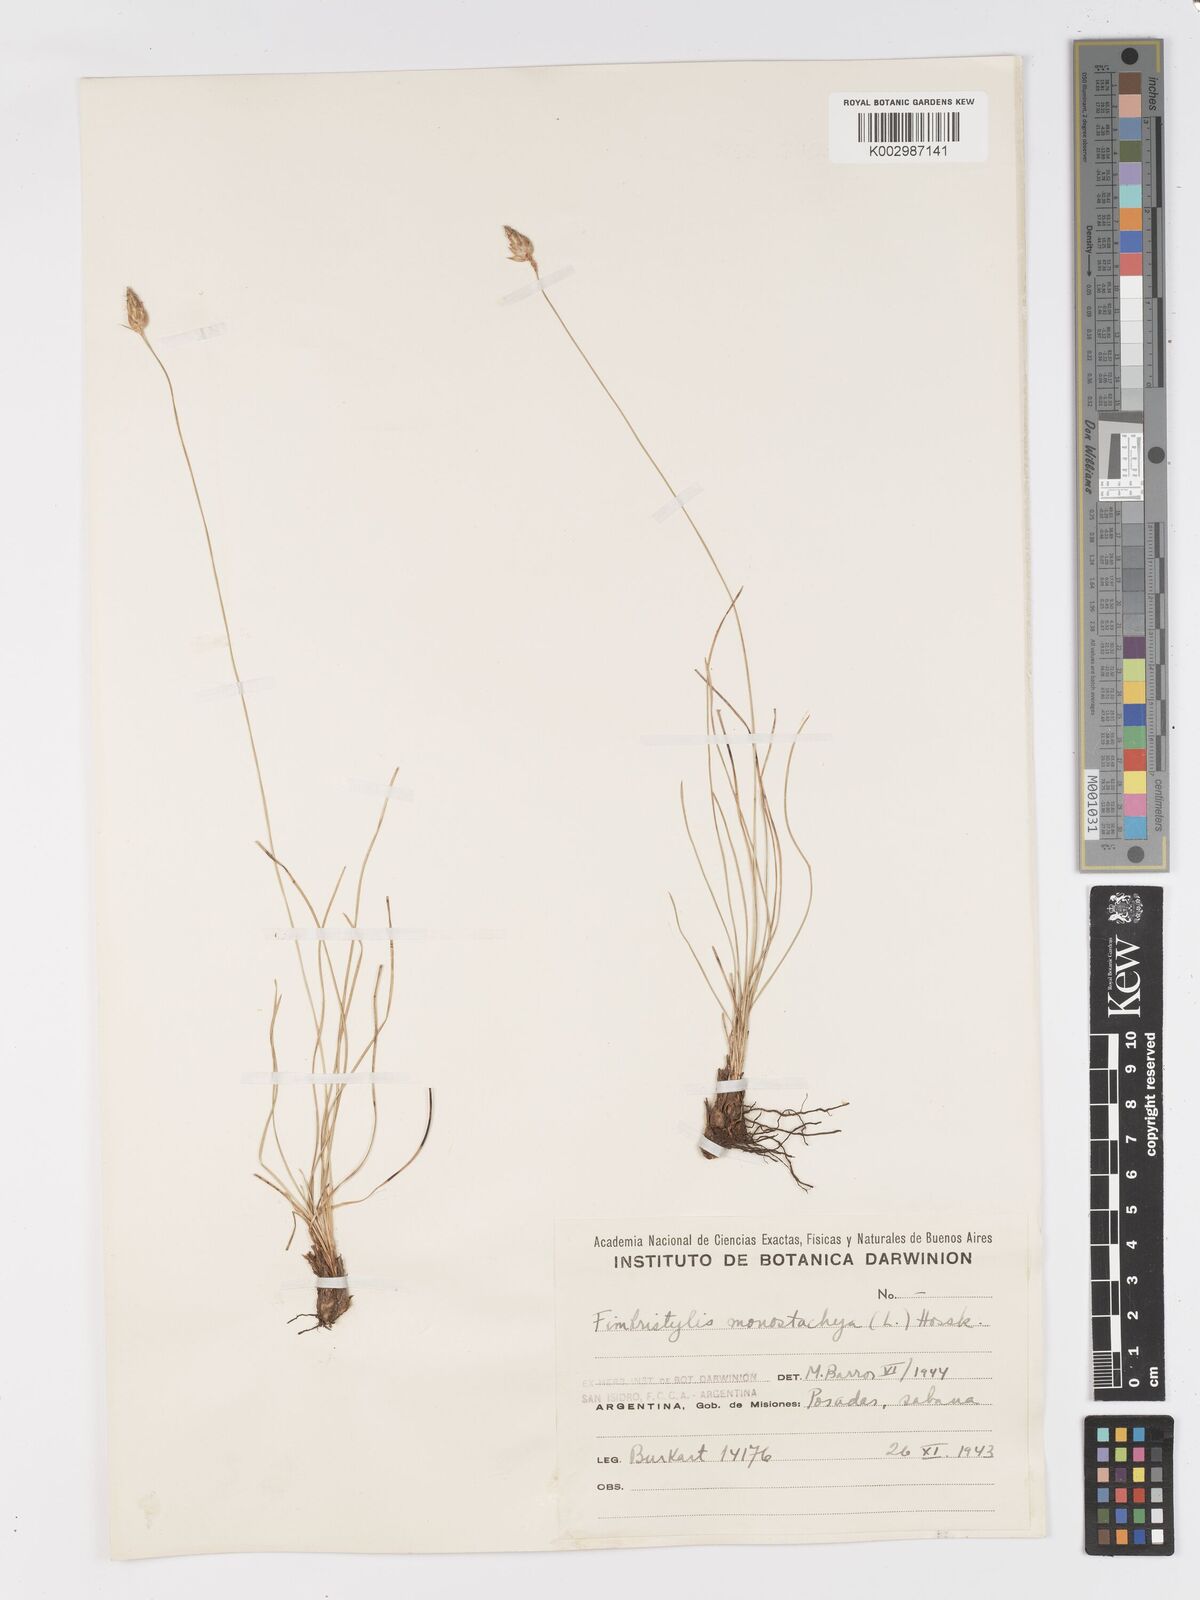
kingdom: Plantae
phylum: Tracheophyta
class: Liliopsida
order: Poales
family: Cyperaceae
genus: Abildgaardia
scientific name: Abildgaardia ovata
